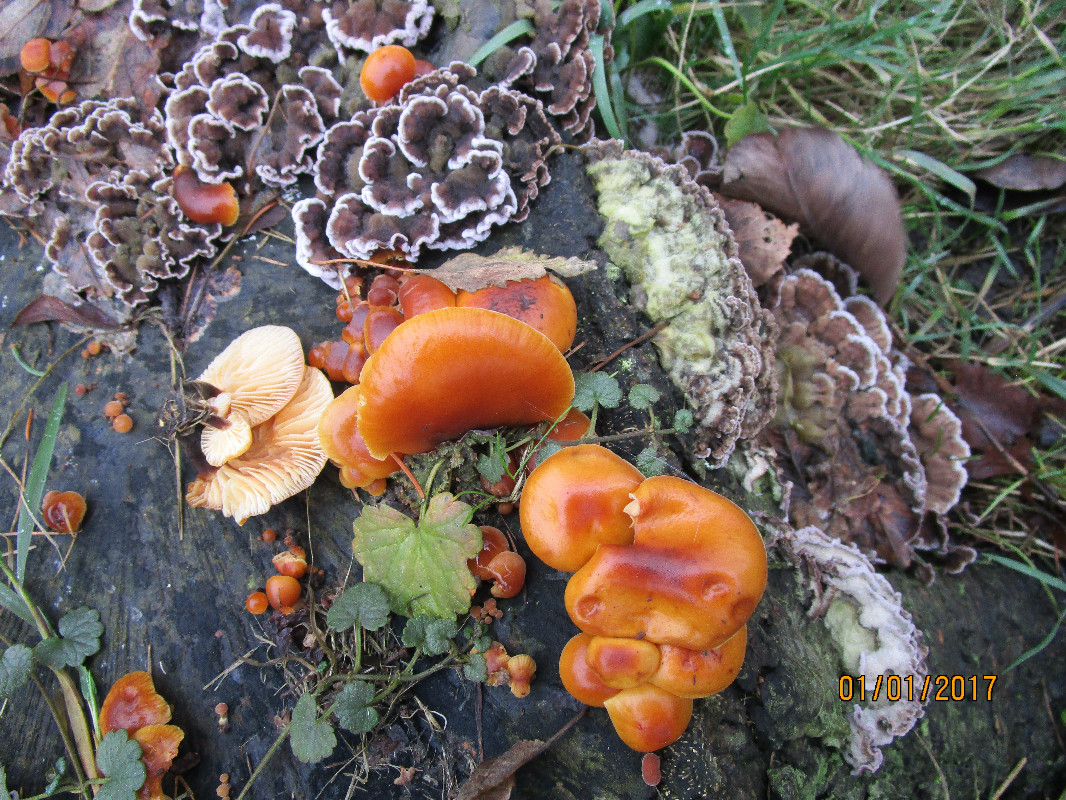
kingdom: Fungi
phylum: Basidiomycota
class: Agaricomycetes
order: Agaricales
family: Physalacriaceae
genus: Flammulina
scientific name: Flammulina velutipes
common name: gul fløjlsfod
